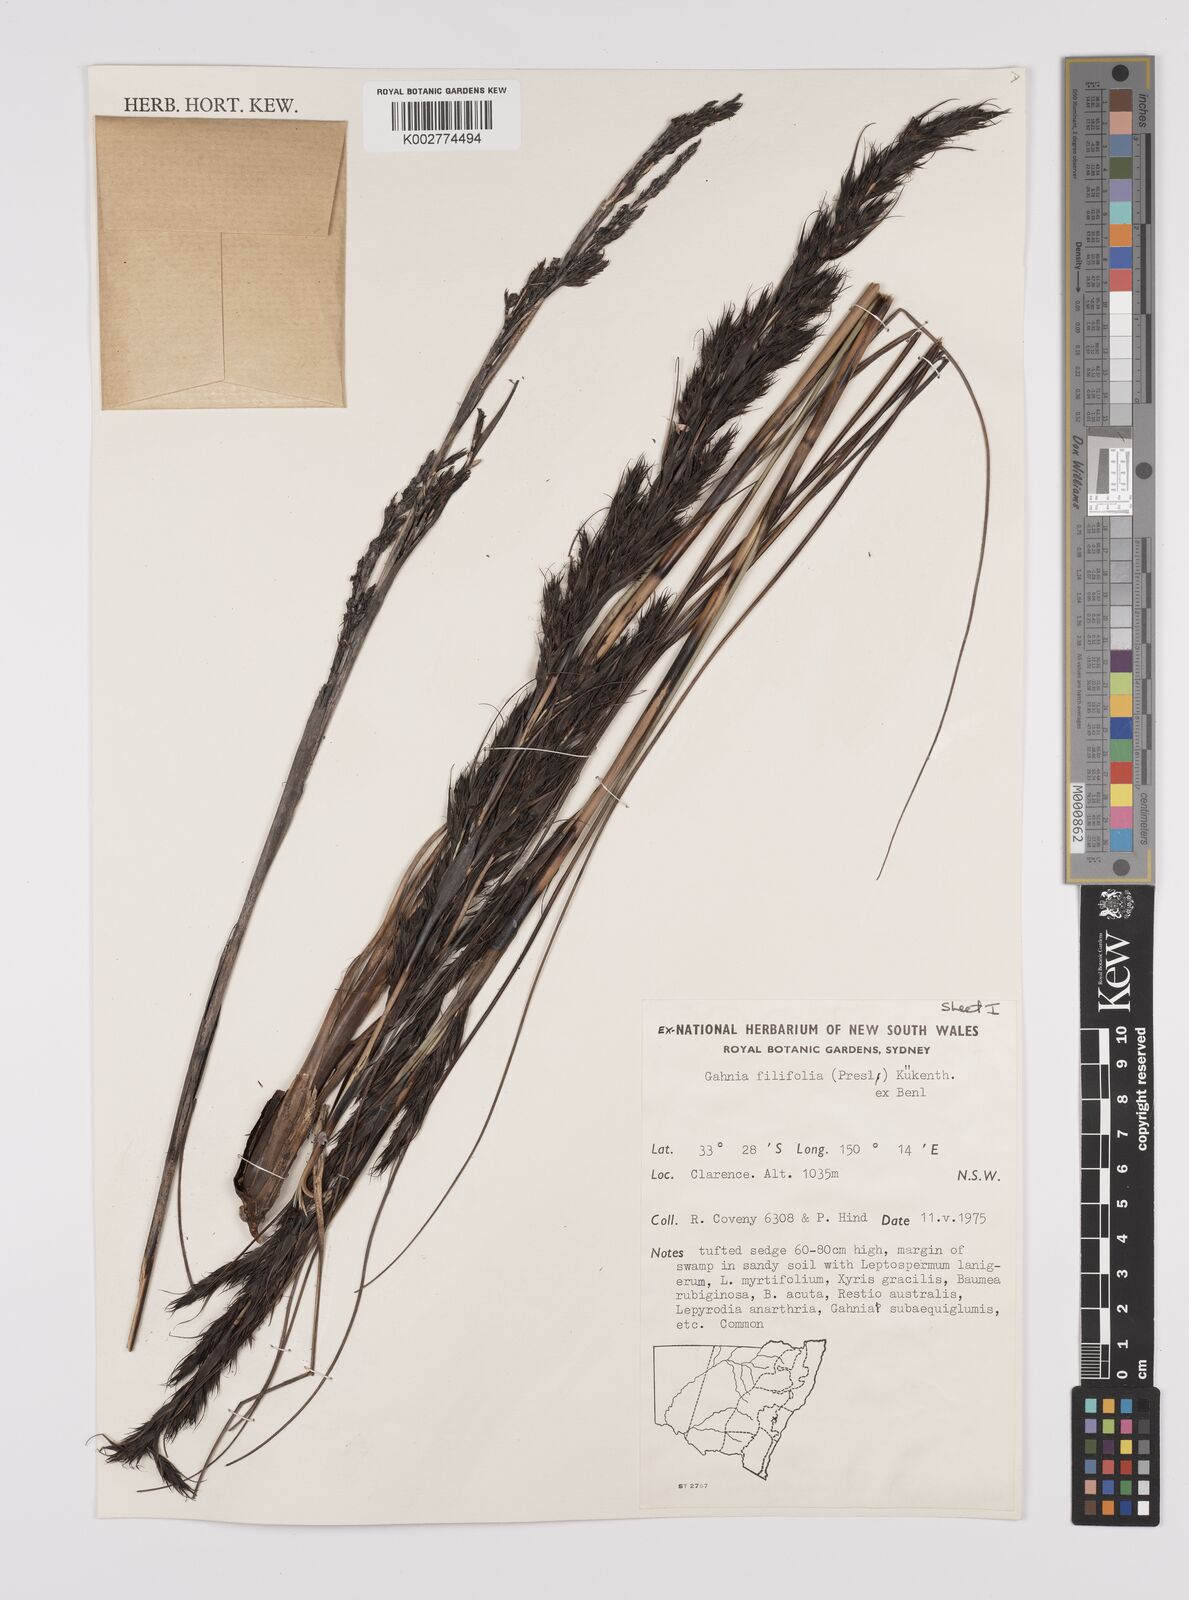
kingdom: Plantae
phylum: Tracheophyta
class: Liliopsida
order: Poales
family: Cyperaceae
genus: Gahnia
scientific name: Gahnia filifolia
